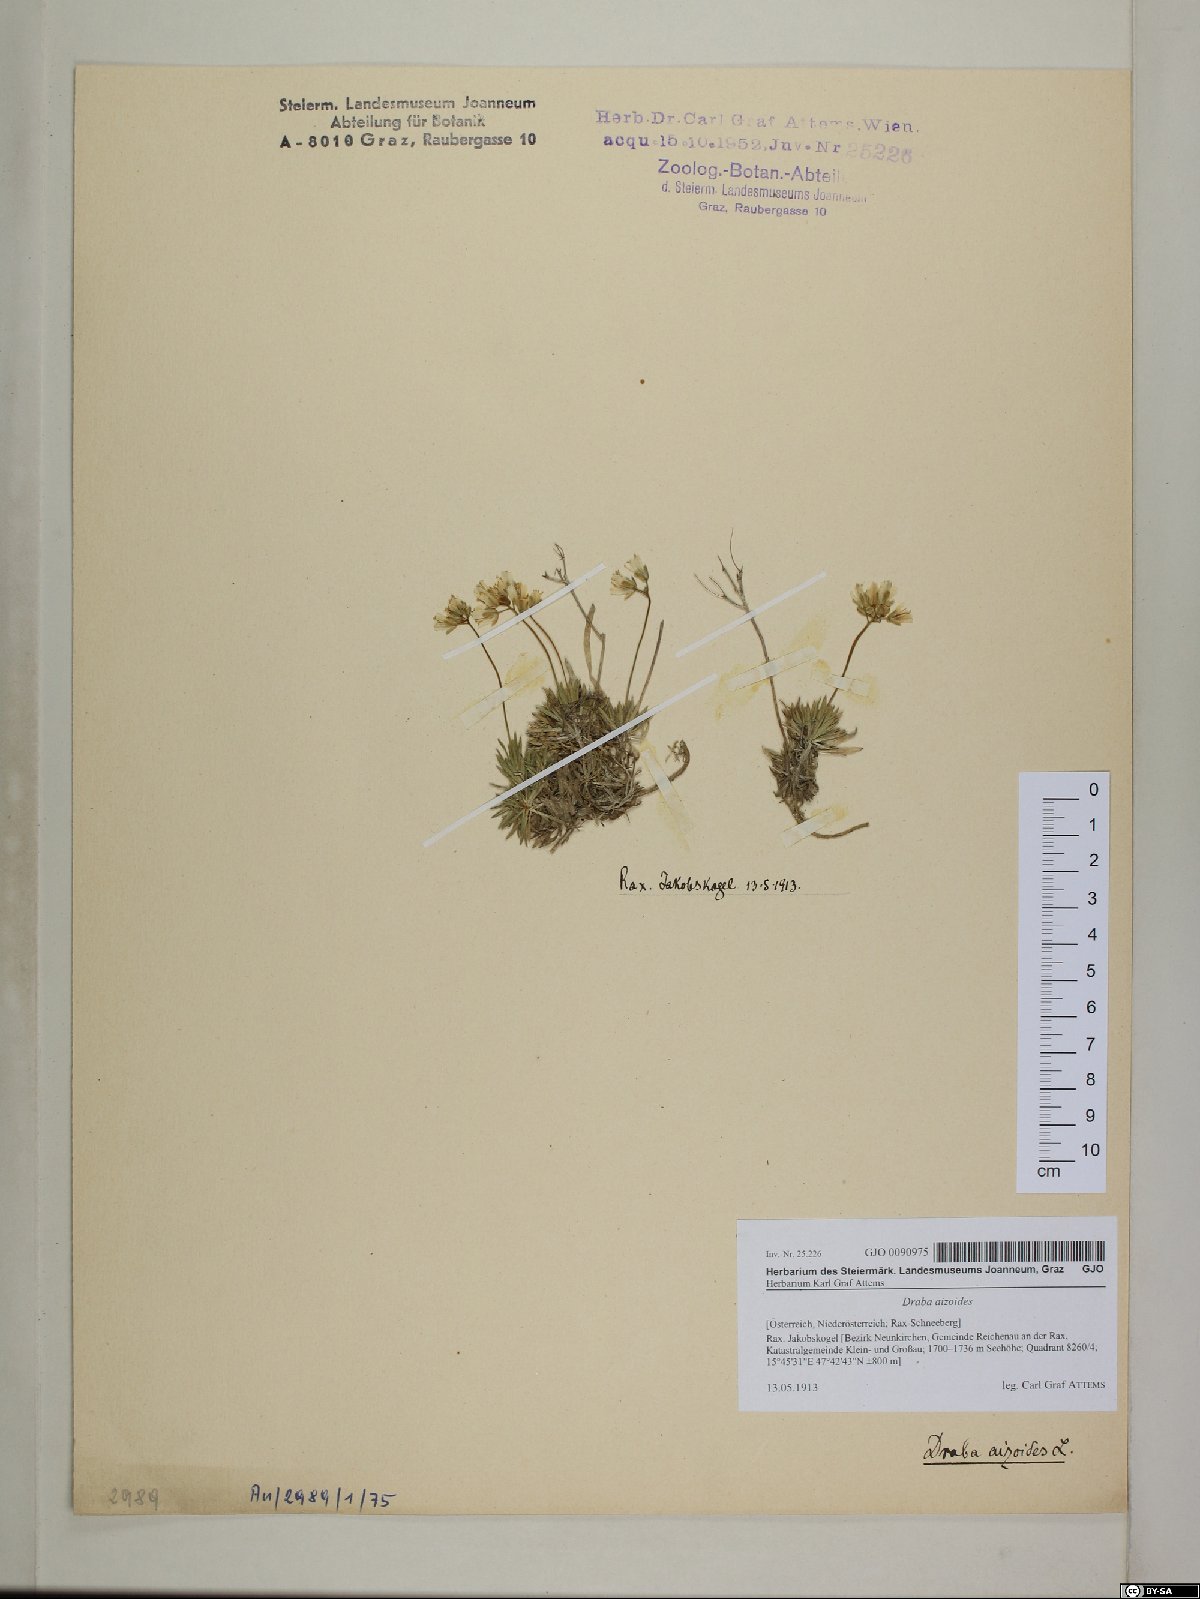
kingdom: Plantae
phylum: Tracheophyta
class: Magnoliopsida
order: Brassicales
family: Brassicaceae
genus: Draba
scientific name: Draba aizoides
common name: Yellow whitlowgrass
